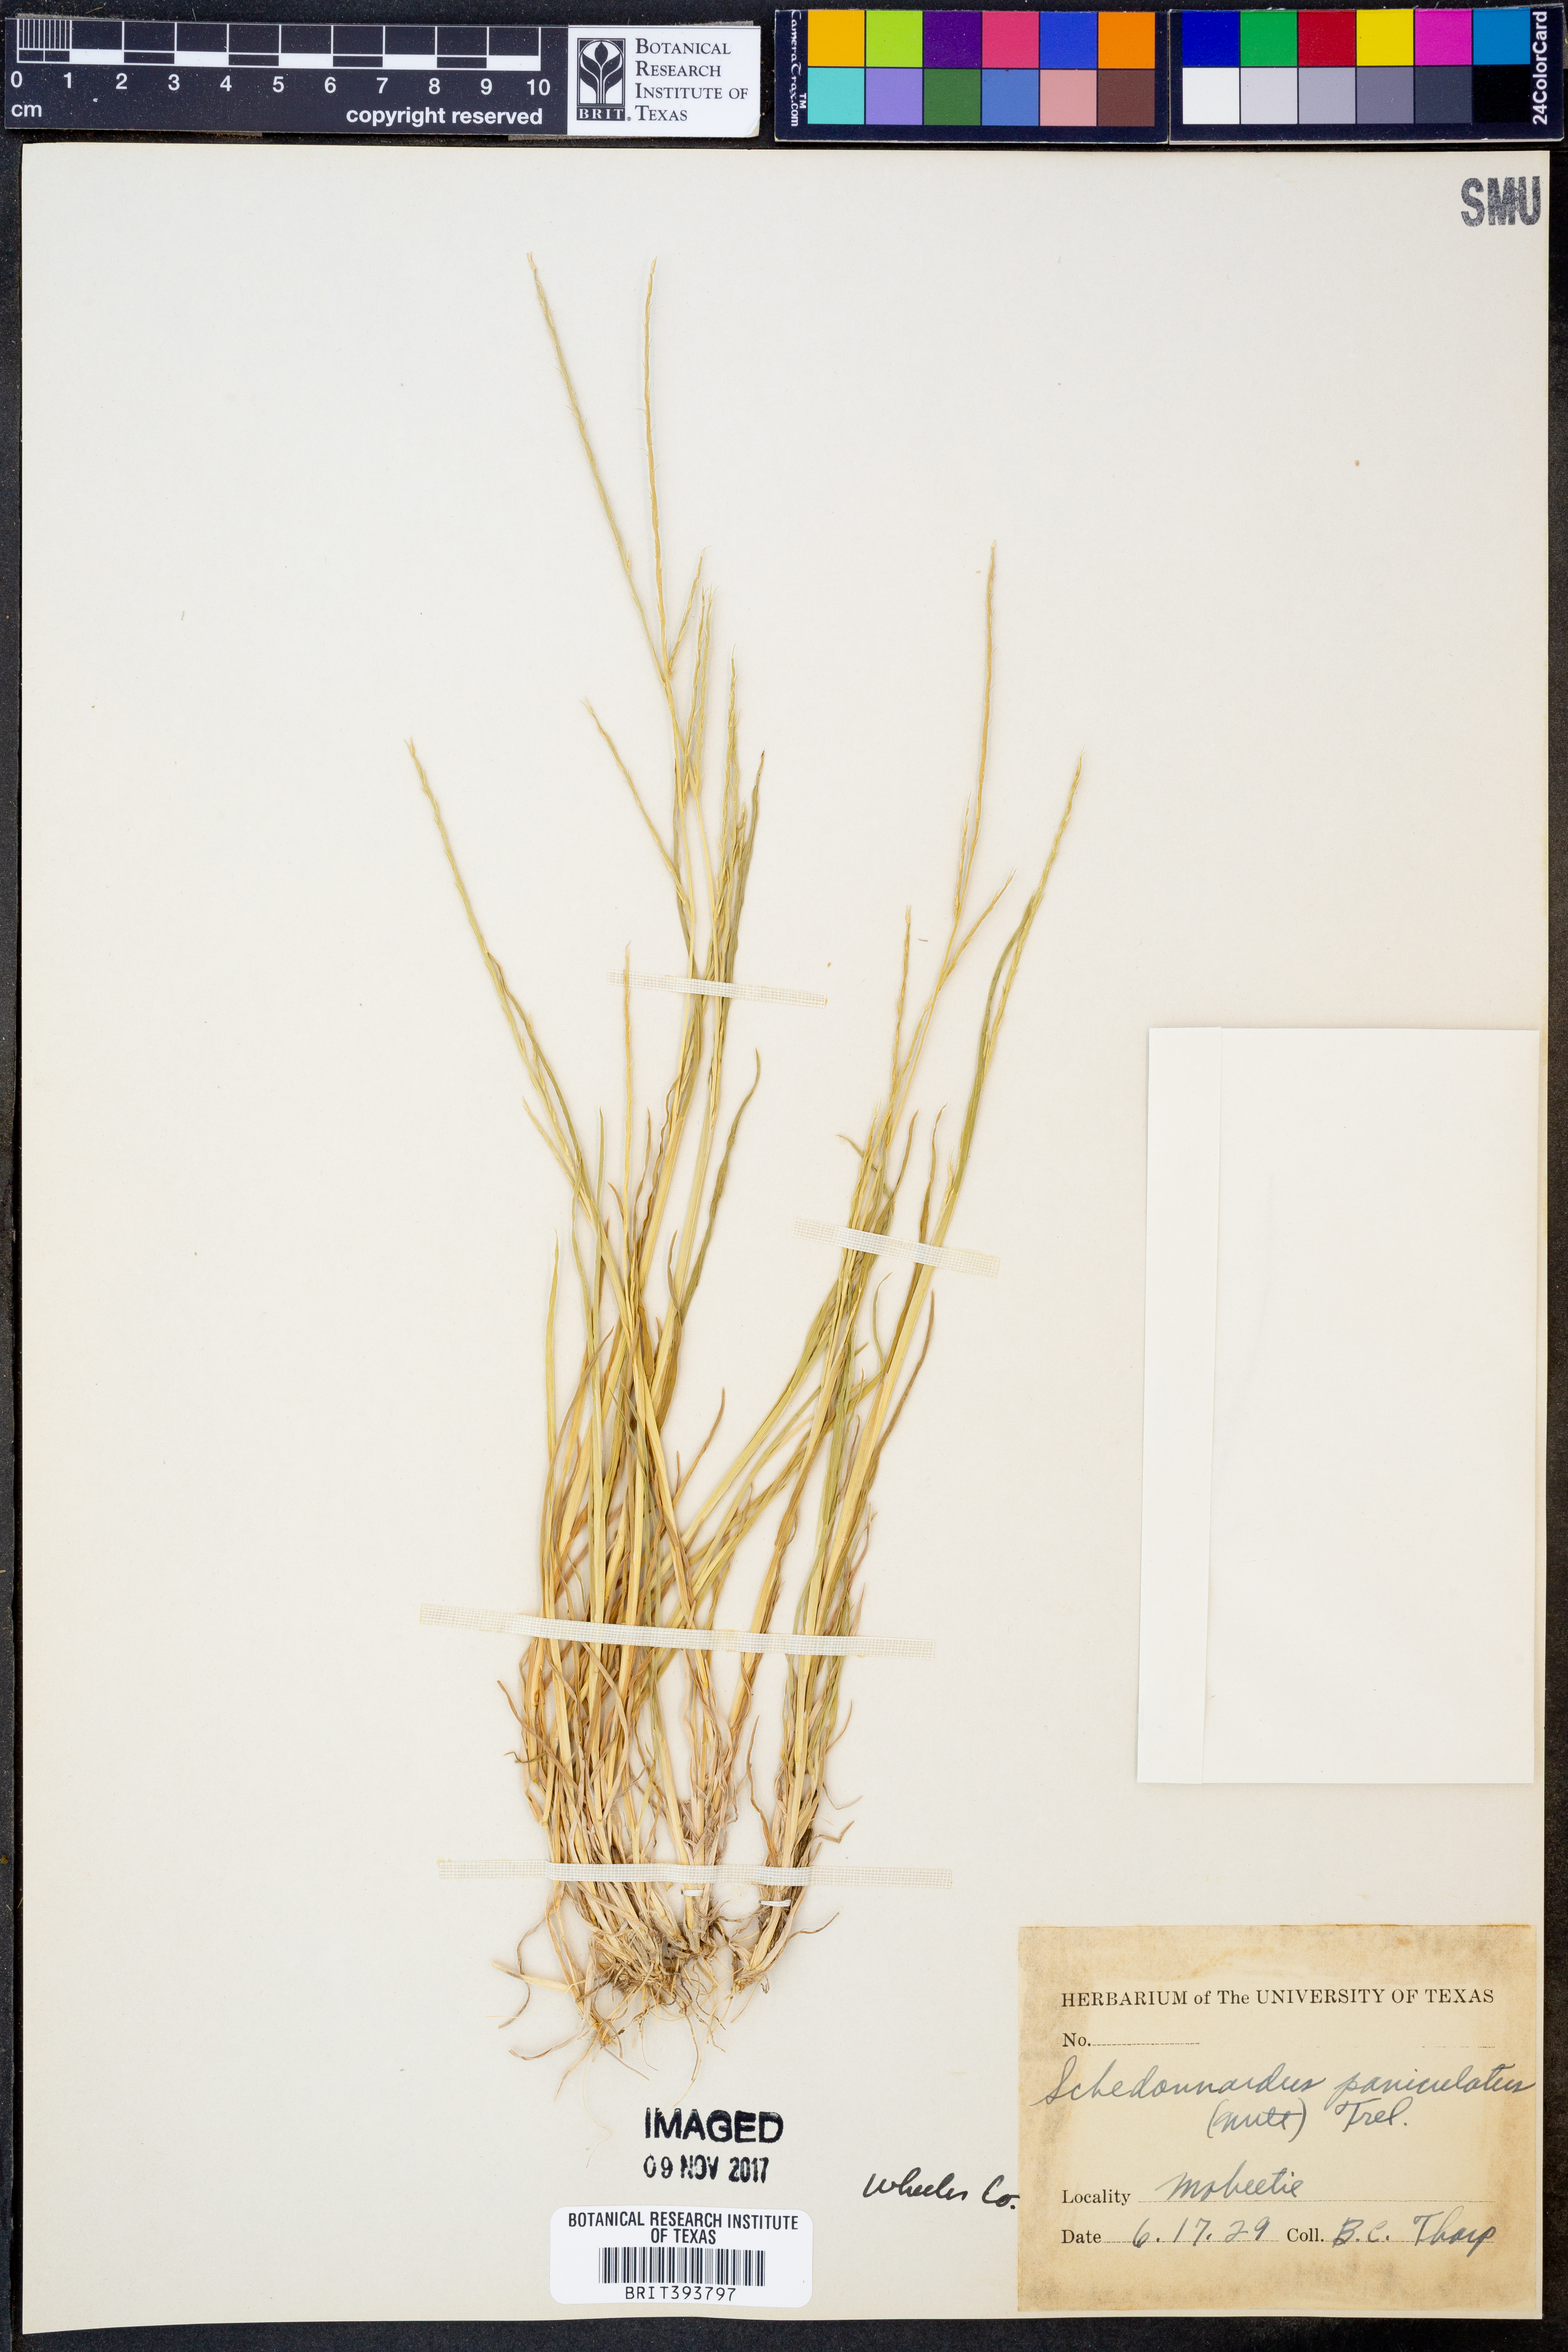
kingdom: Plantae
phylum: Tracheophyta
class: Liliopsida
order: Poales
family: Poaceae
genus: Muhlenbergia
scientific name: Muhlenbergia paniculata
